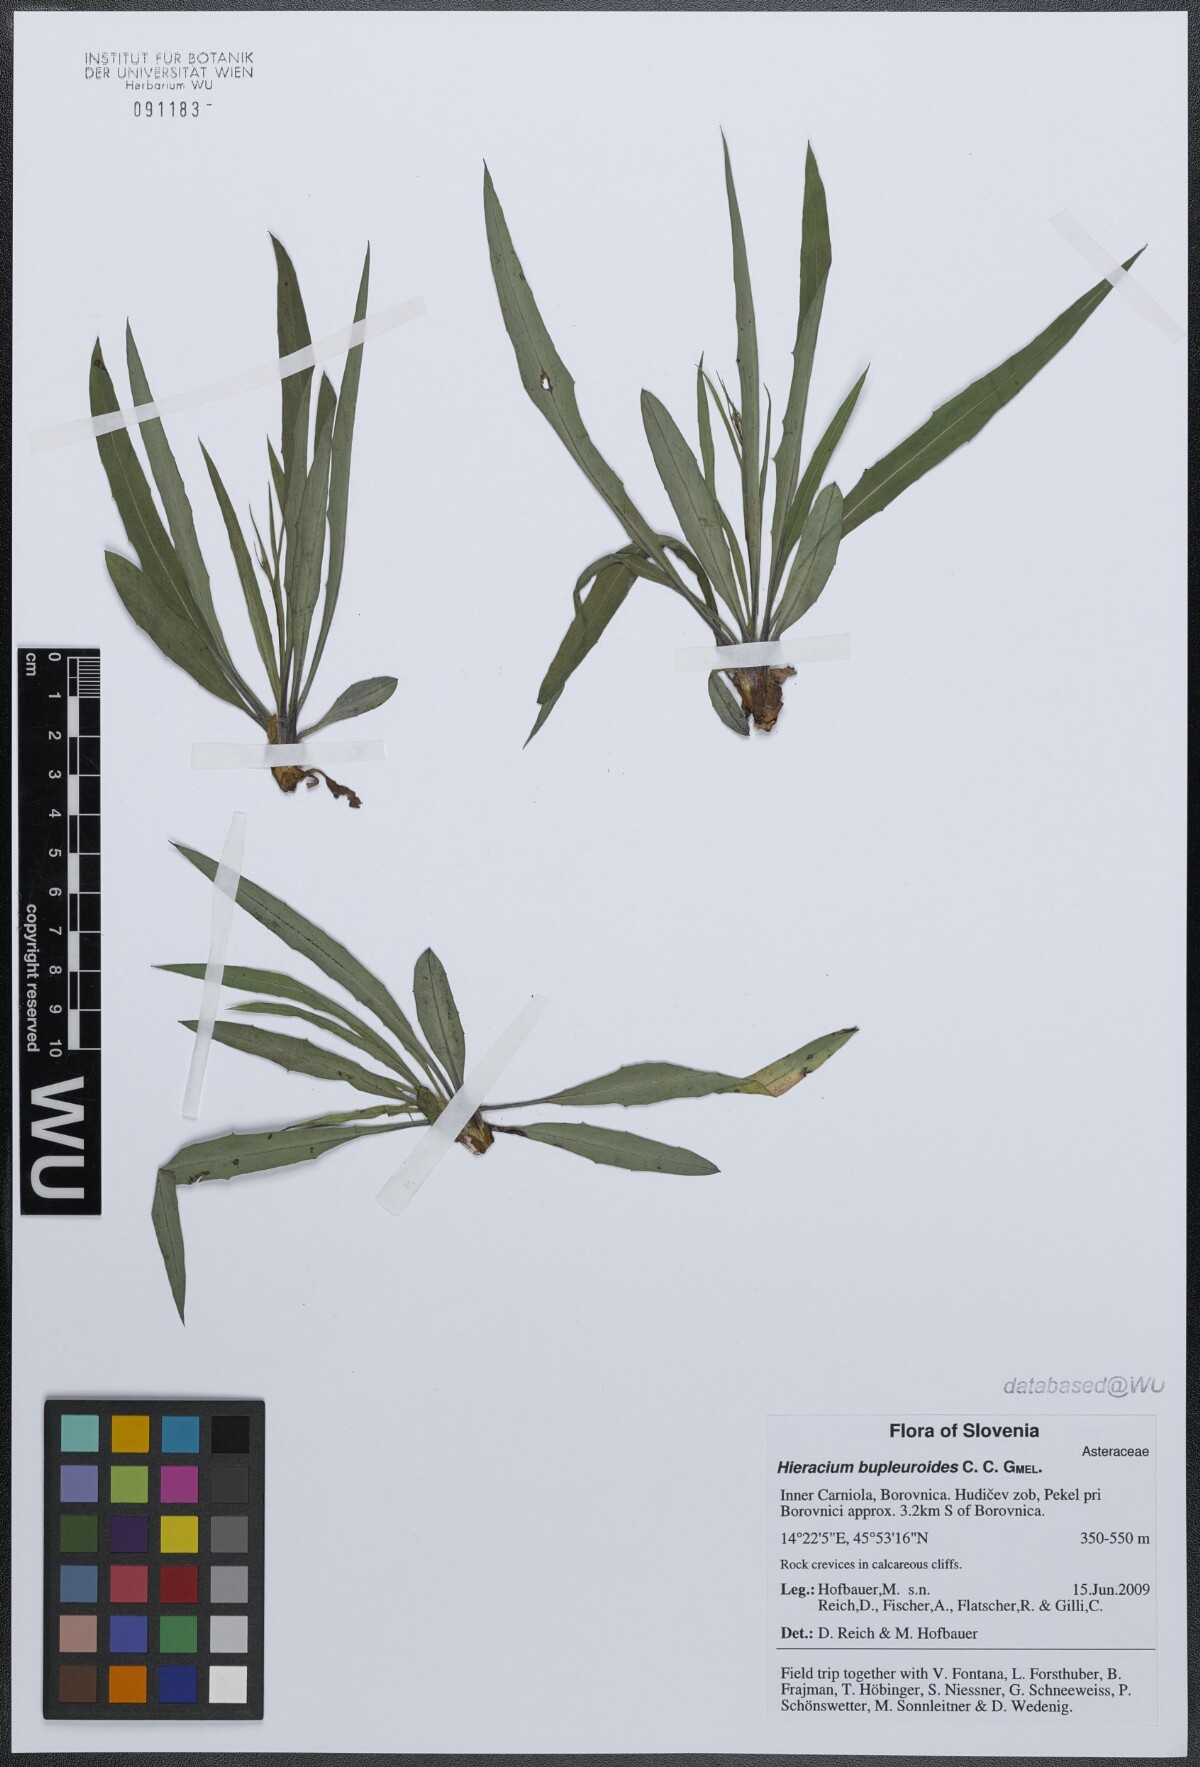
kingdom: Plantae
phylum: Tracheophyta
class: Magnoliopsida
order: Asterales
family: Asteraceae
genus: Hieracium
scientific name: Hieracium bupleuroides
